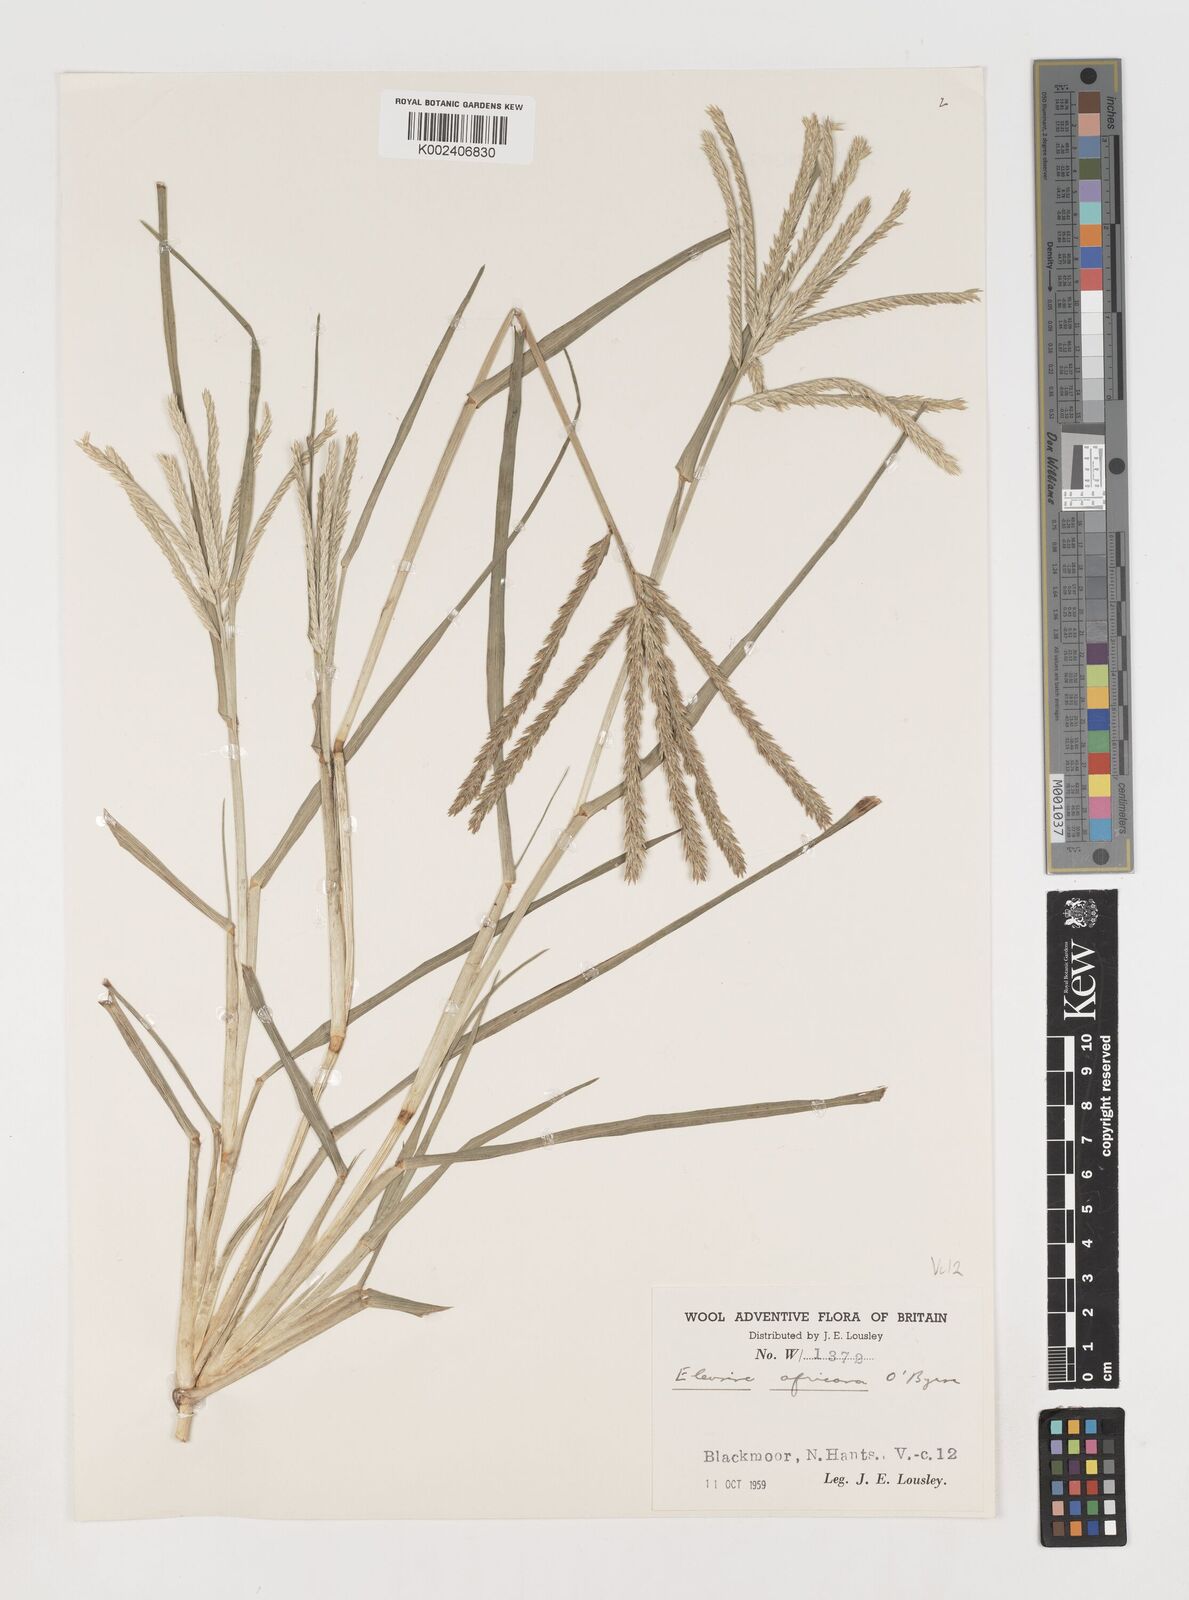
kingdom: Plantae
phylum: Tracheophyta
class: Liliopsida
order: Poales
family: Poaceae
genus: Eleusine
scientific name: Eleusine africana
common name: Wild african finger millet
